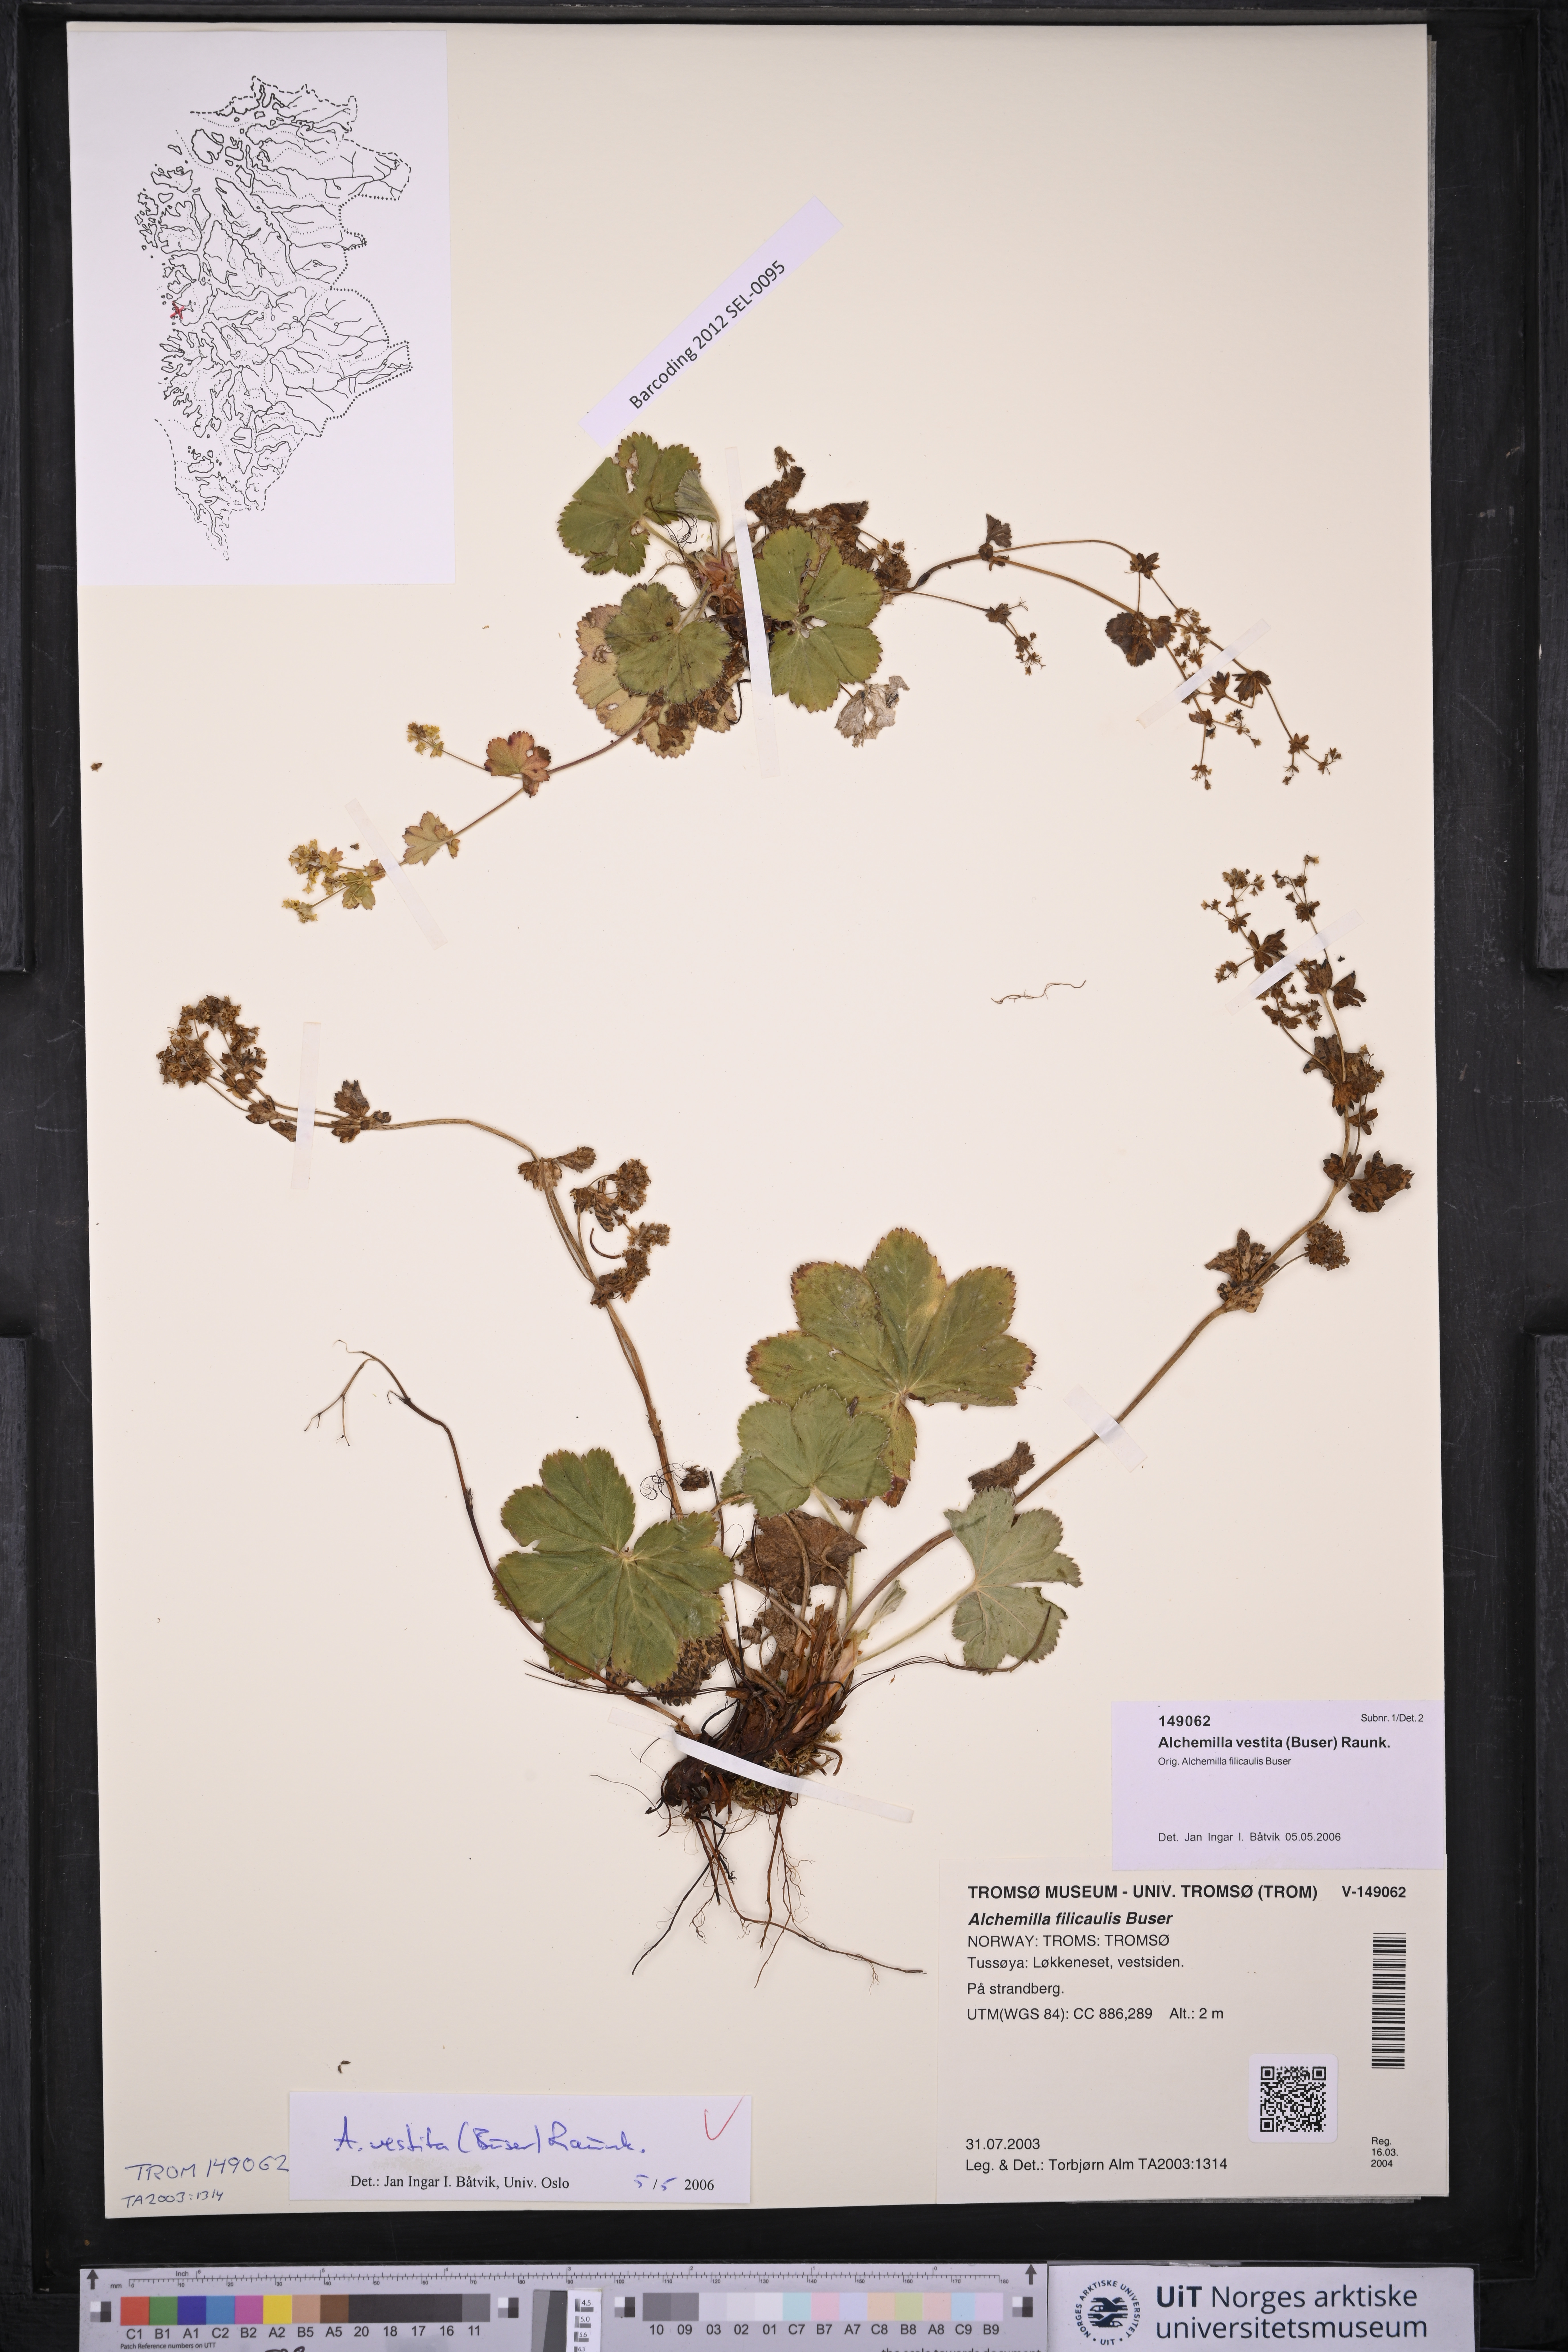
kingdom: Plantae
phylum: Tracheophyta
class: Magnoliopsida
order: Rosales
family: Rosaceae
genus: Alchemilla
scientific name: Alchemilla filicaulis
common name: Hairy lady's-mantle
